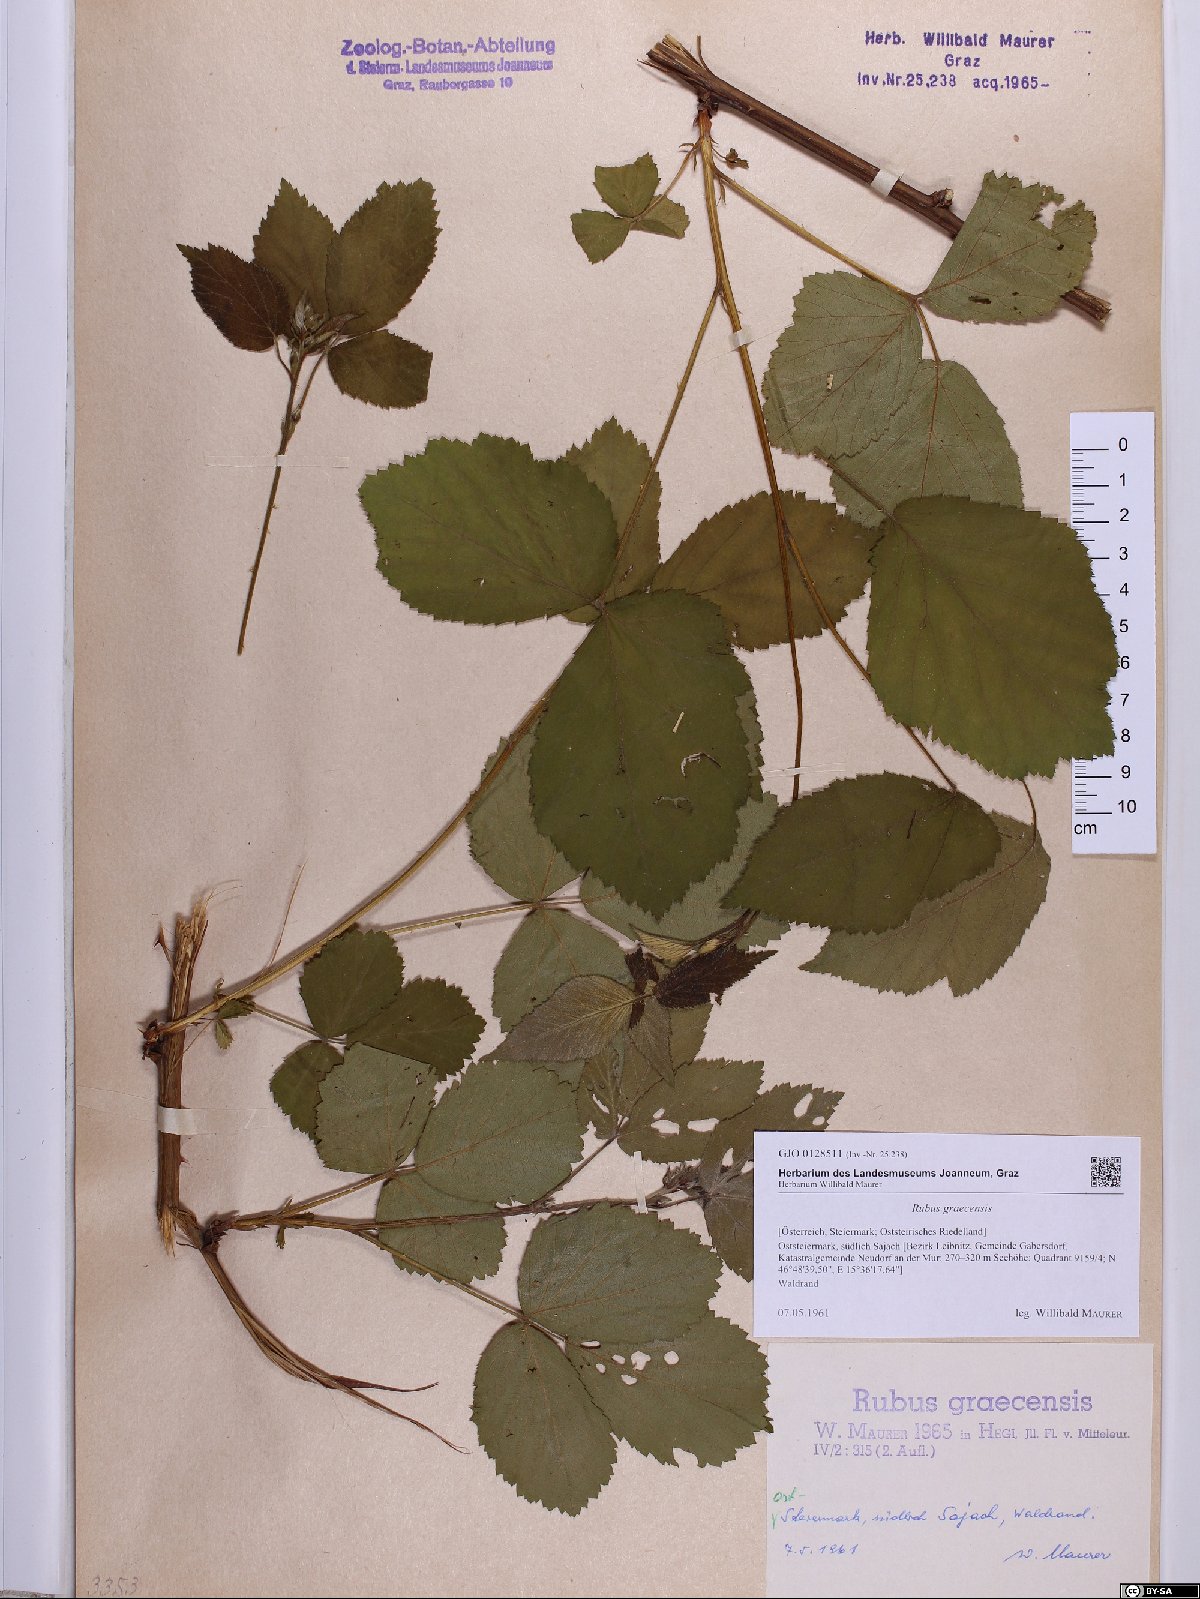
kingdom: Plantae
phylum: Tracheophyta
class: Magnoliopsida
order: Rosales
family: Rosaceae
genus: Rubus
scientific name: Rubus graecensis
